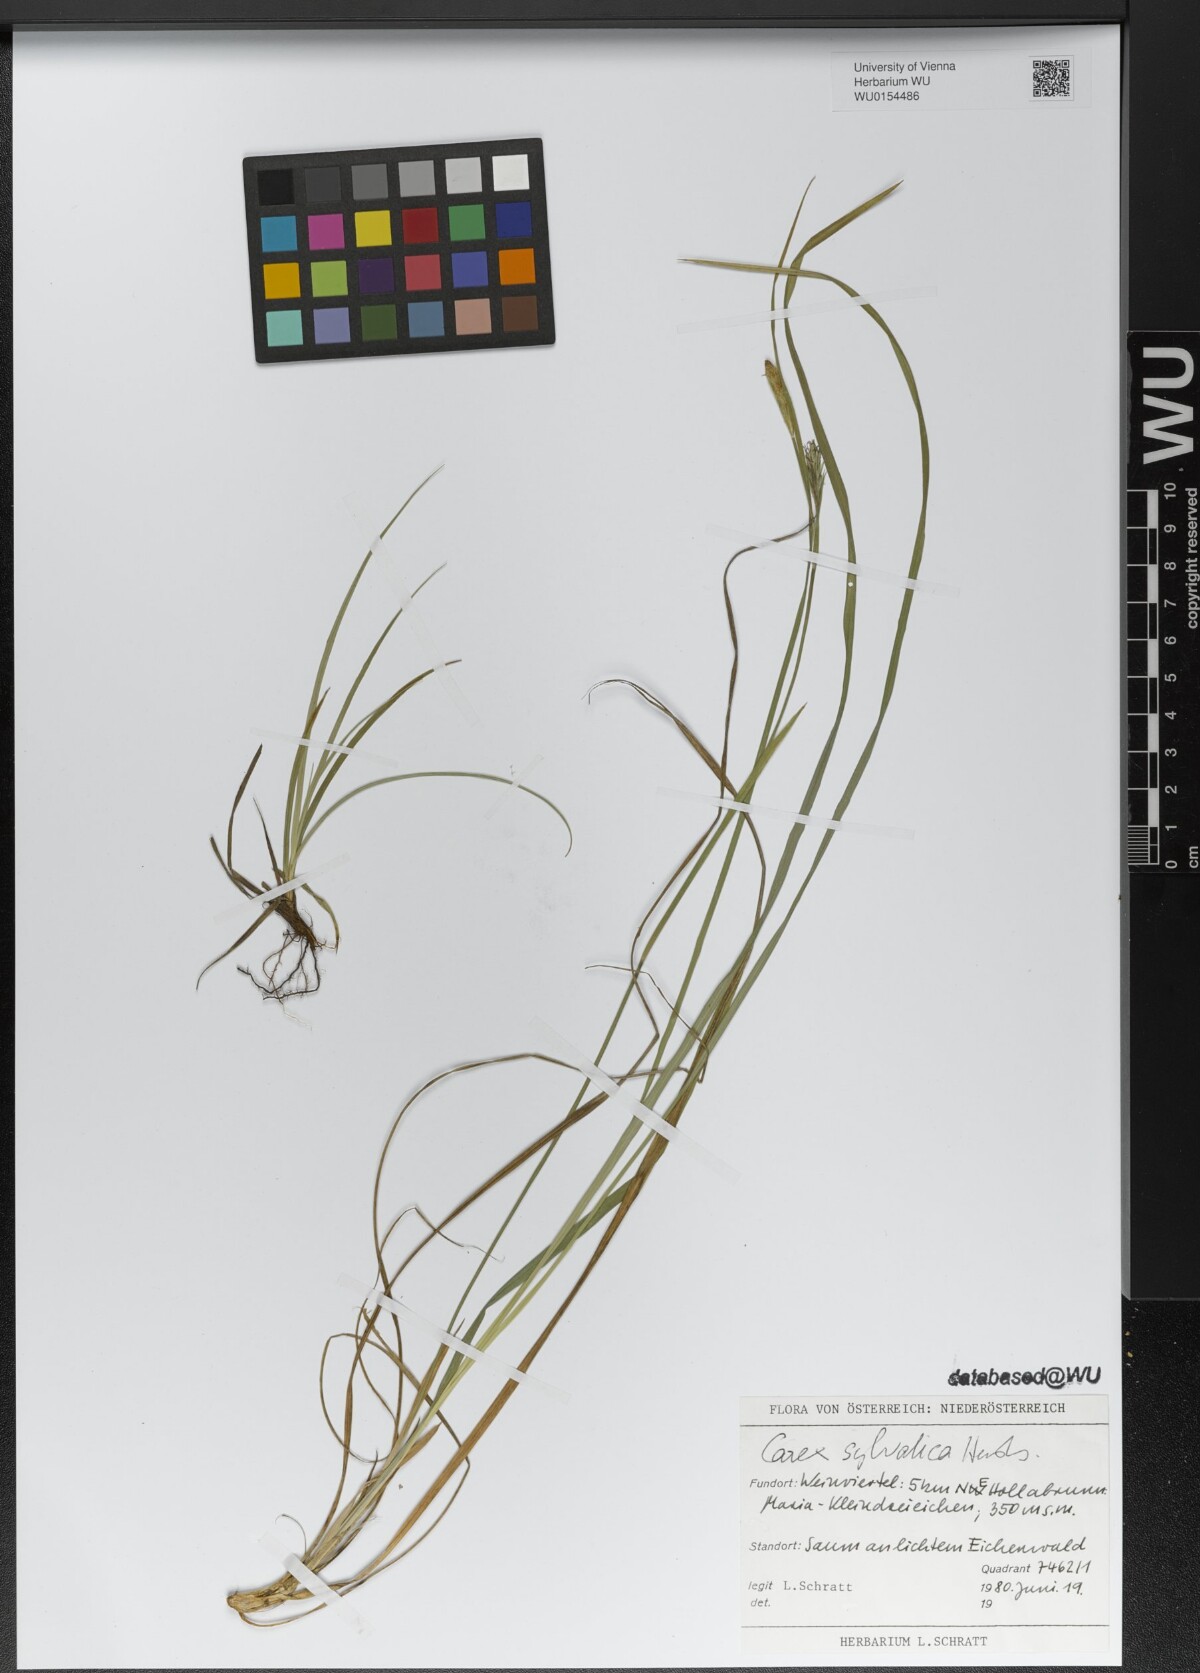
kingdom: Plantae
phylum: Tracheophyta
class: Liliopsida
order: Poales
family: Cyperaceae
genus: Carex
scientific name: Carex sylvatica
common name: Wood-sedge
